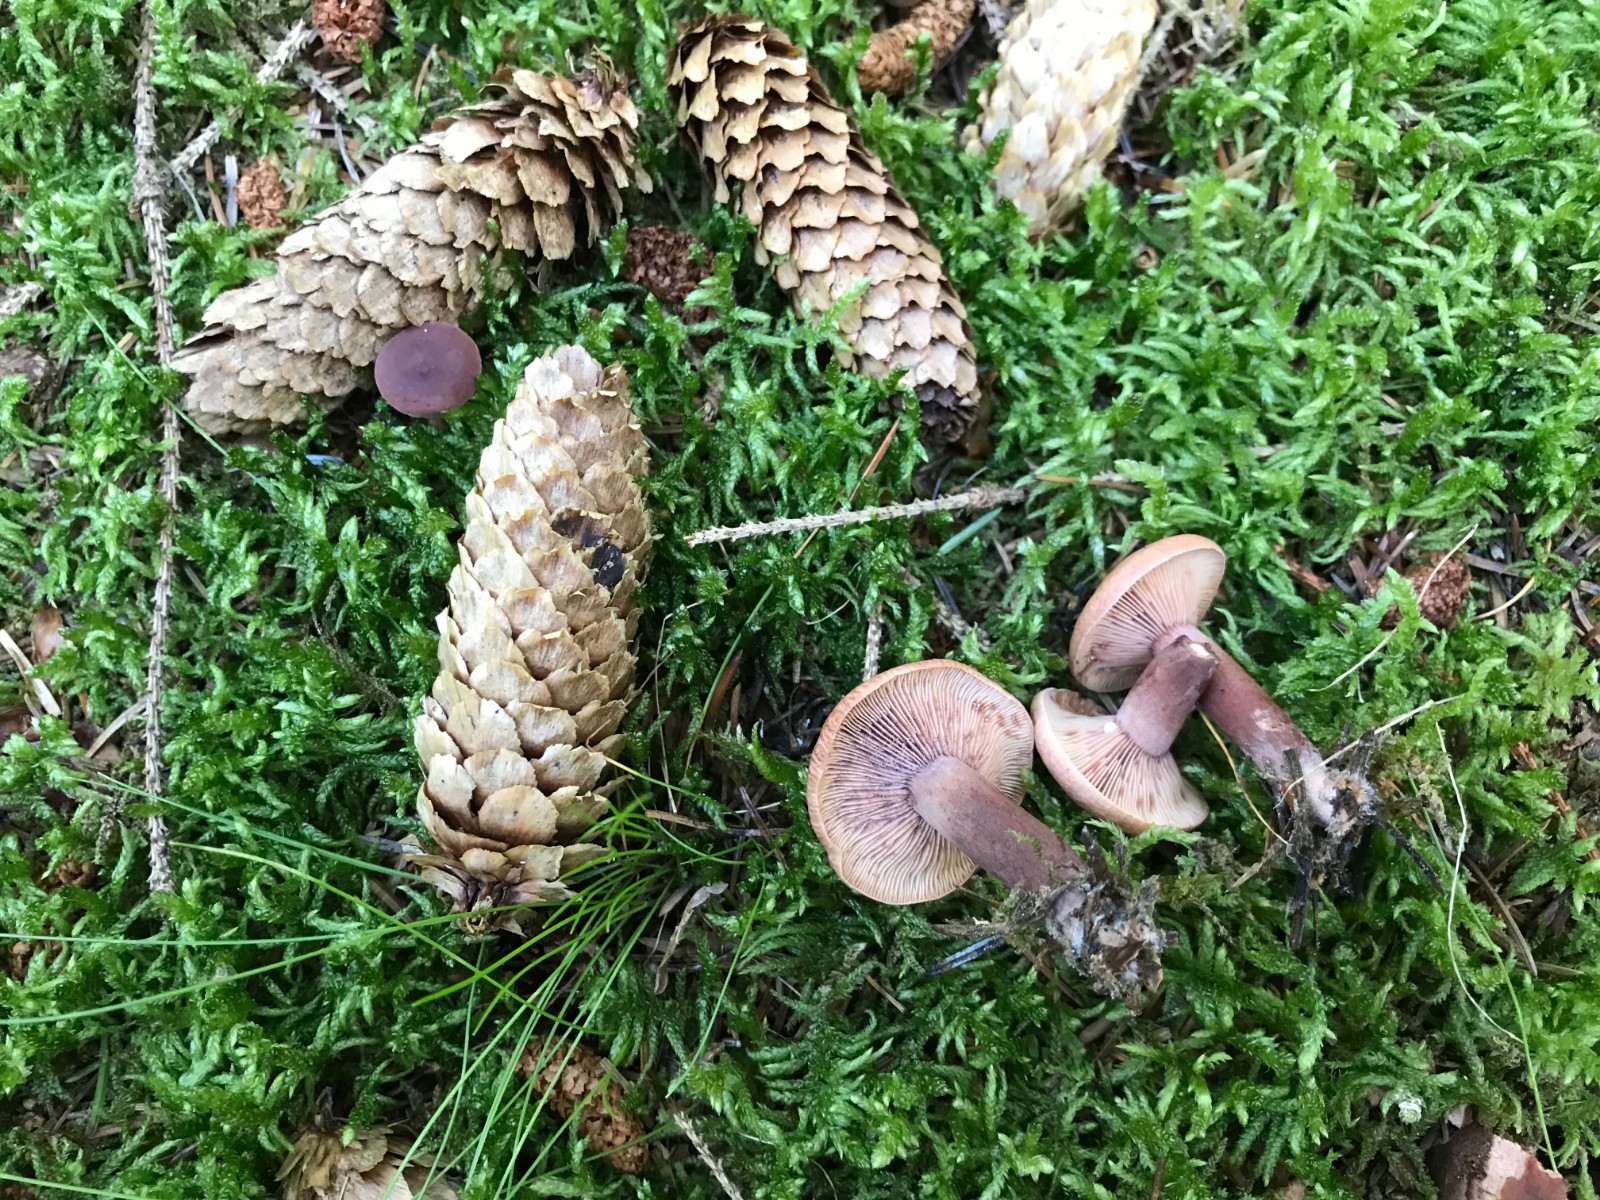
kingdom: Fungi
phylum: Basidiomycota
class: Agaricomycetes
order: Russulales
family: Russulaceae
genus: Lactarius
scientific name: Lactarius camphoratus
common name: kamfer-mælkehat
